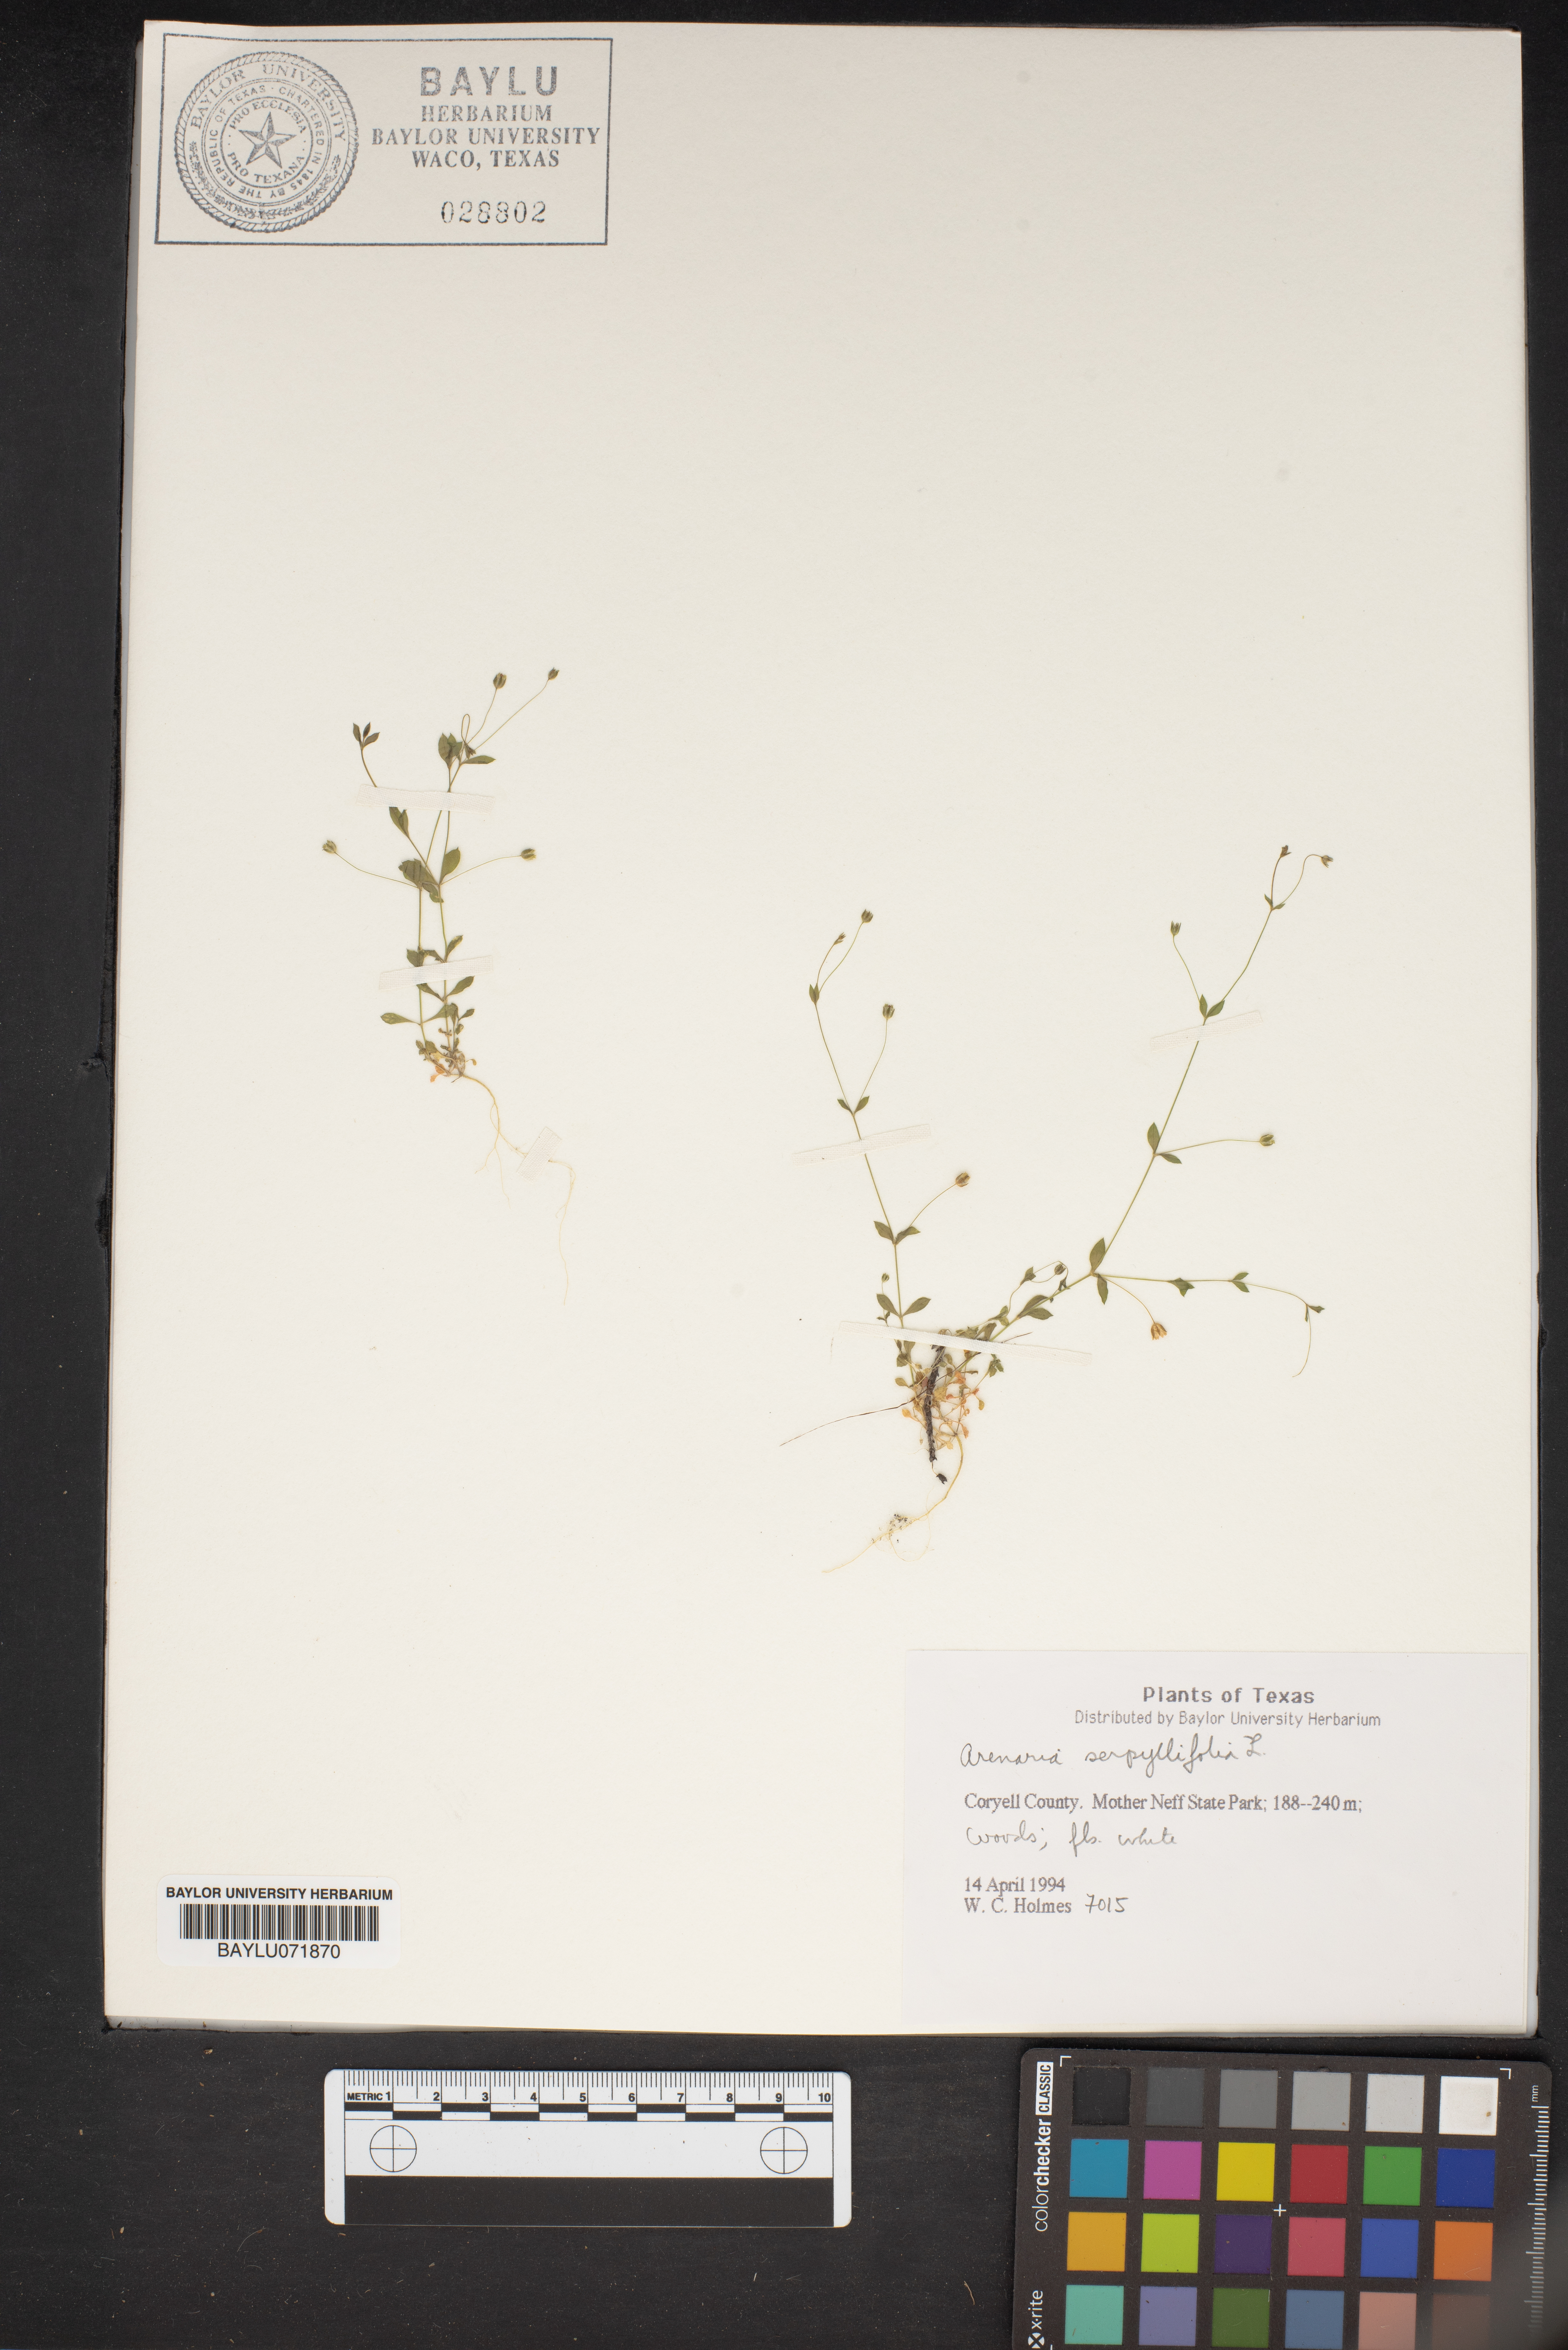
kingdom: Plantae
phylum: Tracheophyta
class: Magnoliopsida
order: Caryophyllales
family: Caryophyllaceae
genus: Arenaria
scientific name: Arenaria serpyllifolia
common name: Thyme-leaved sandwort
